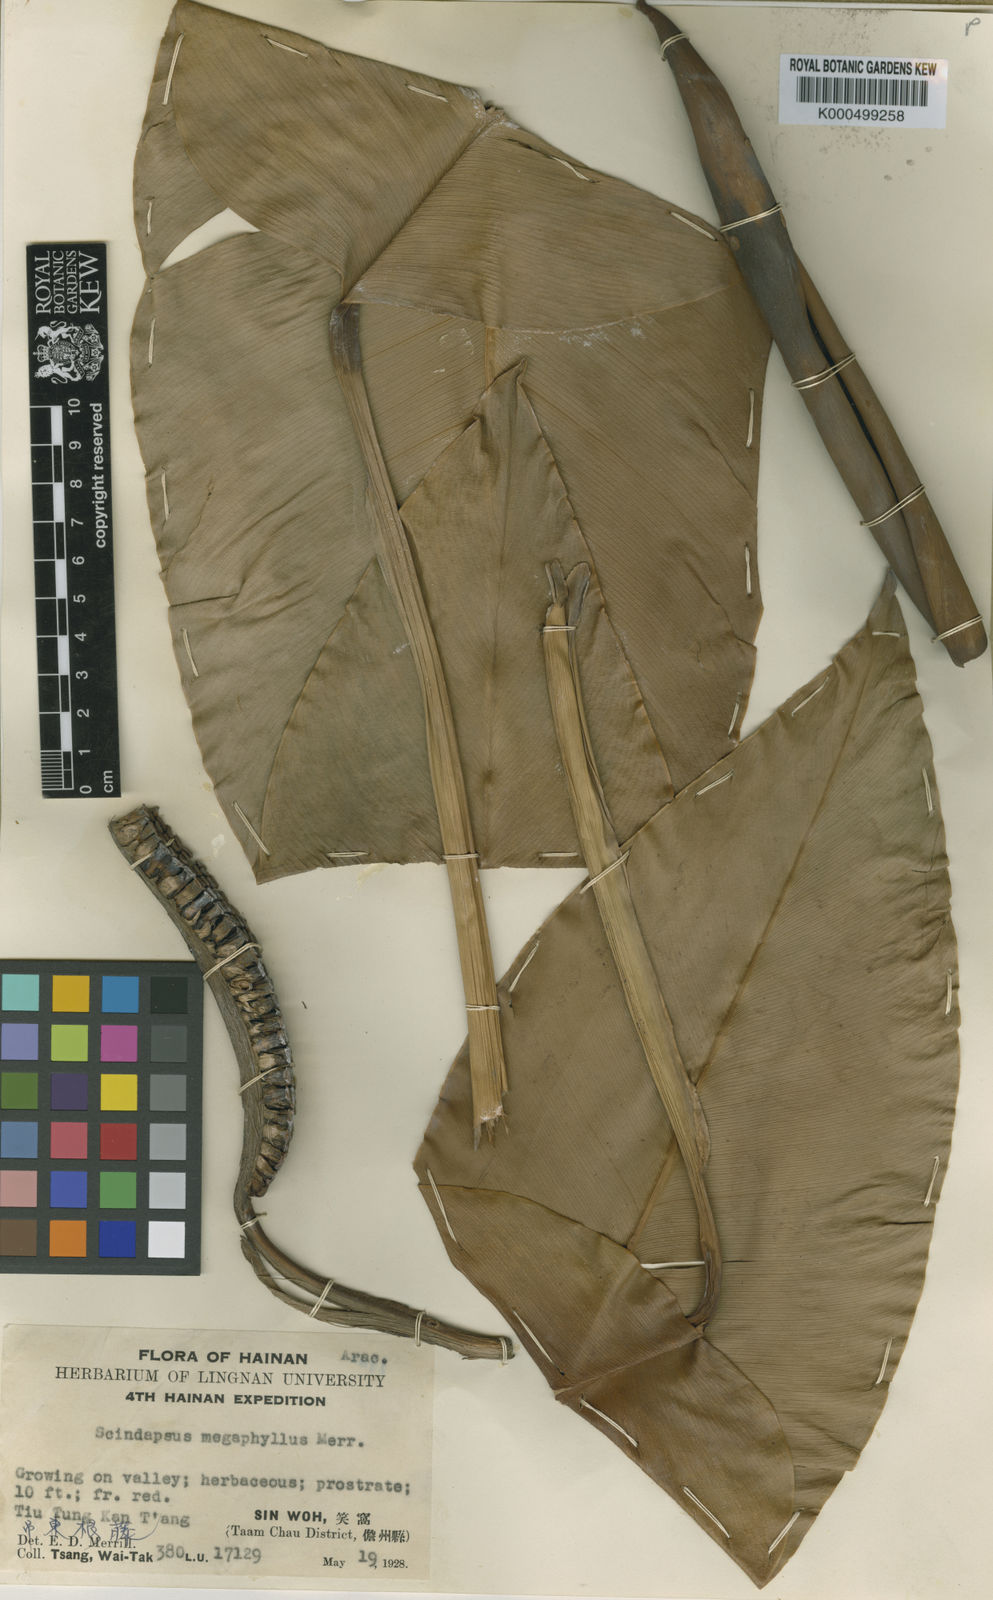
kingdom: Plantae
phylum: Tracheophyta
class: Liliopsida
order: Alismatales
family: Araceae
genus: Scindapsus
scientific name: Scindapsus maclurei
